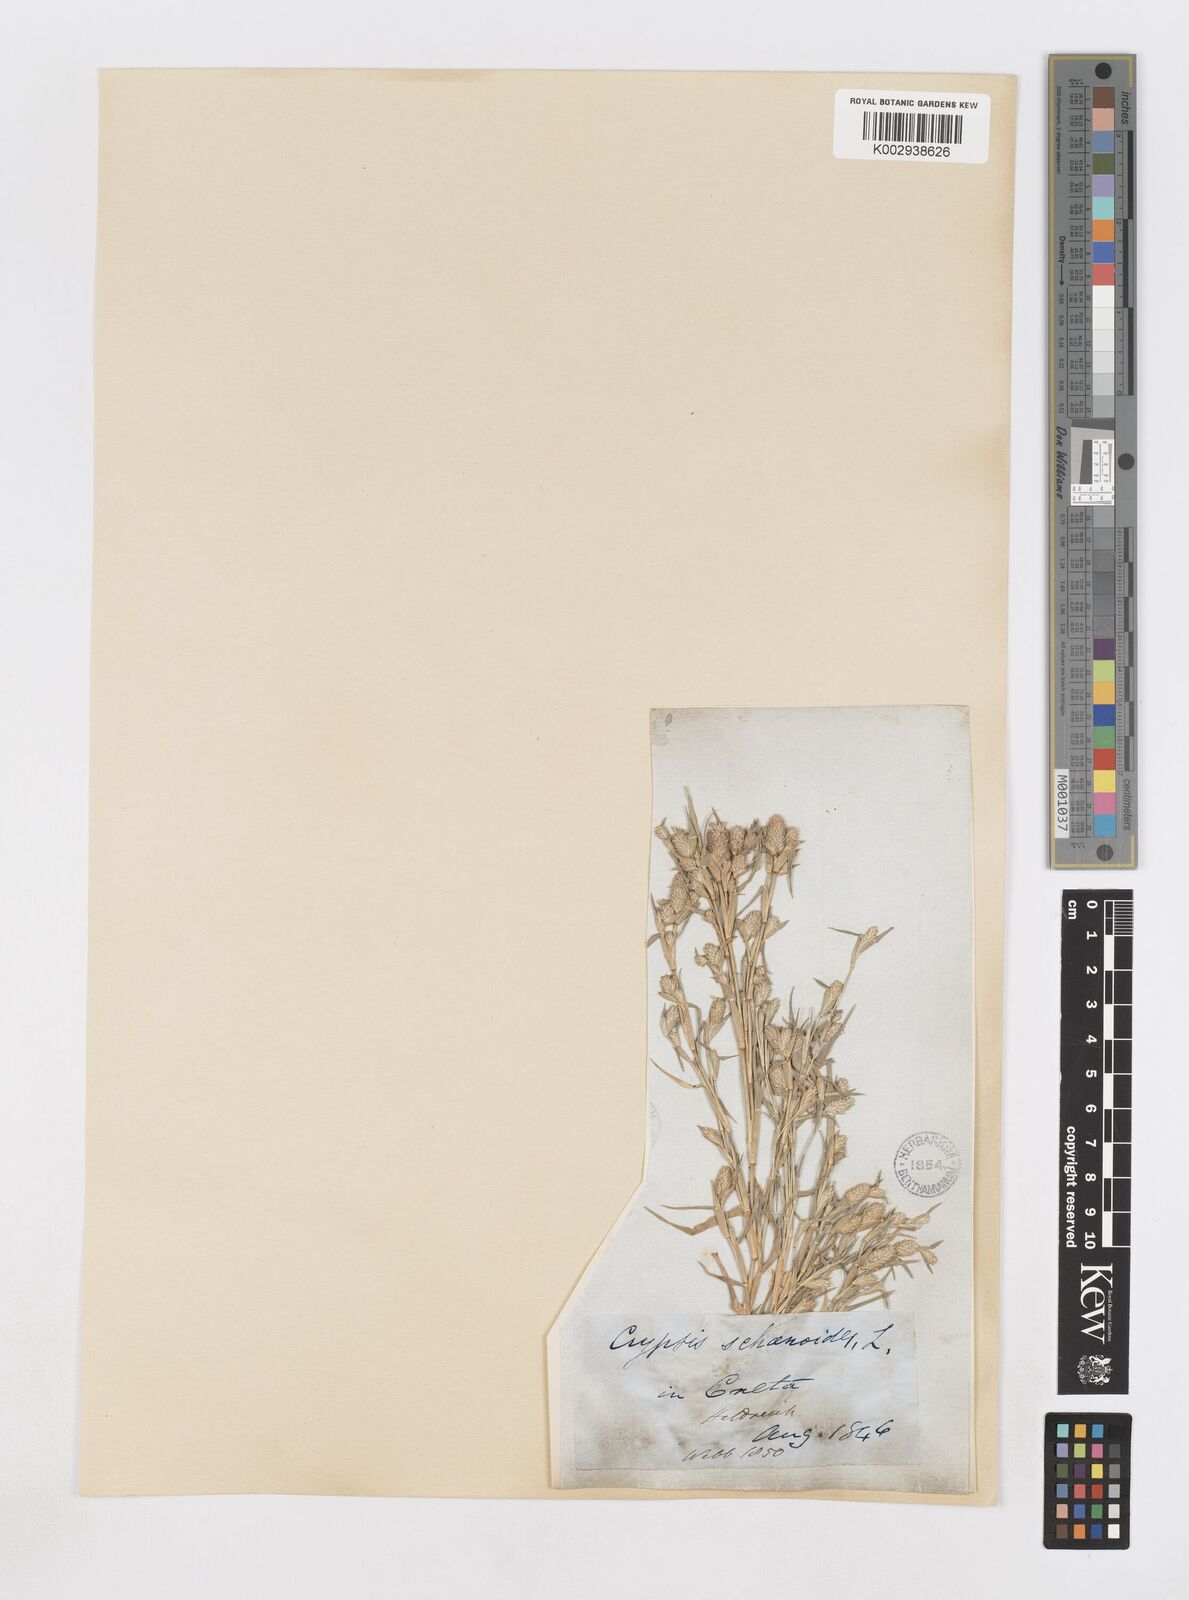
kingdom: Plantae
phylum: Tracheophyta
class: Liliopsida
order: Poales
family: Poaceae
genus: Sporobolus
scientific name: Sporobolus schoenoides
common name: Rush-like timothy
